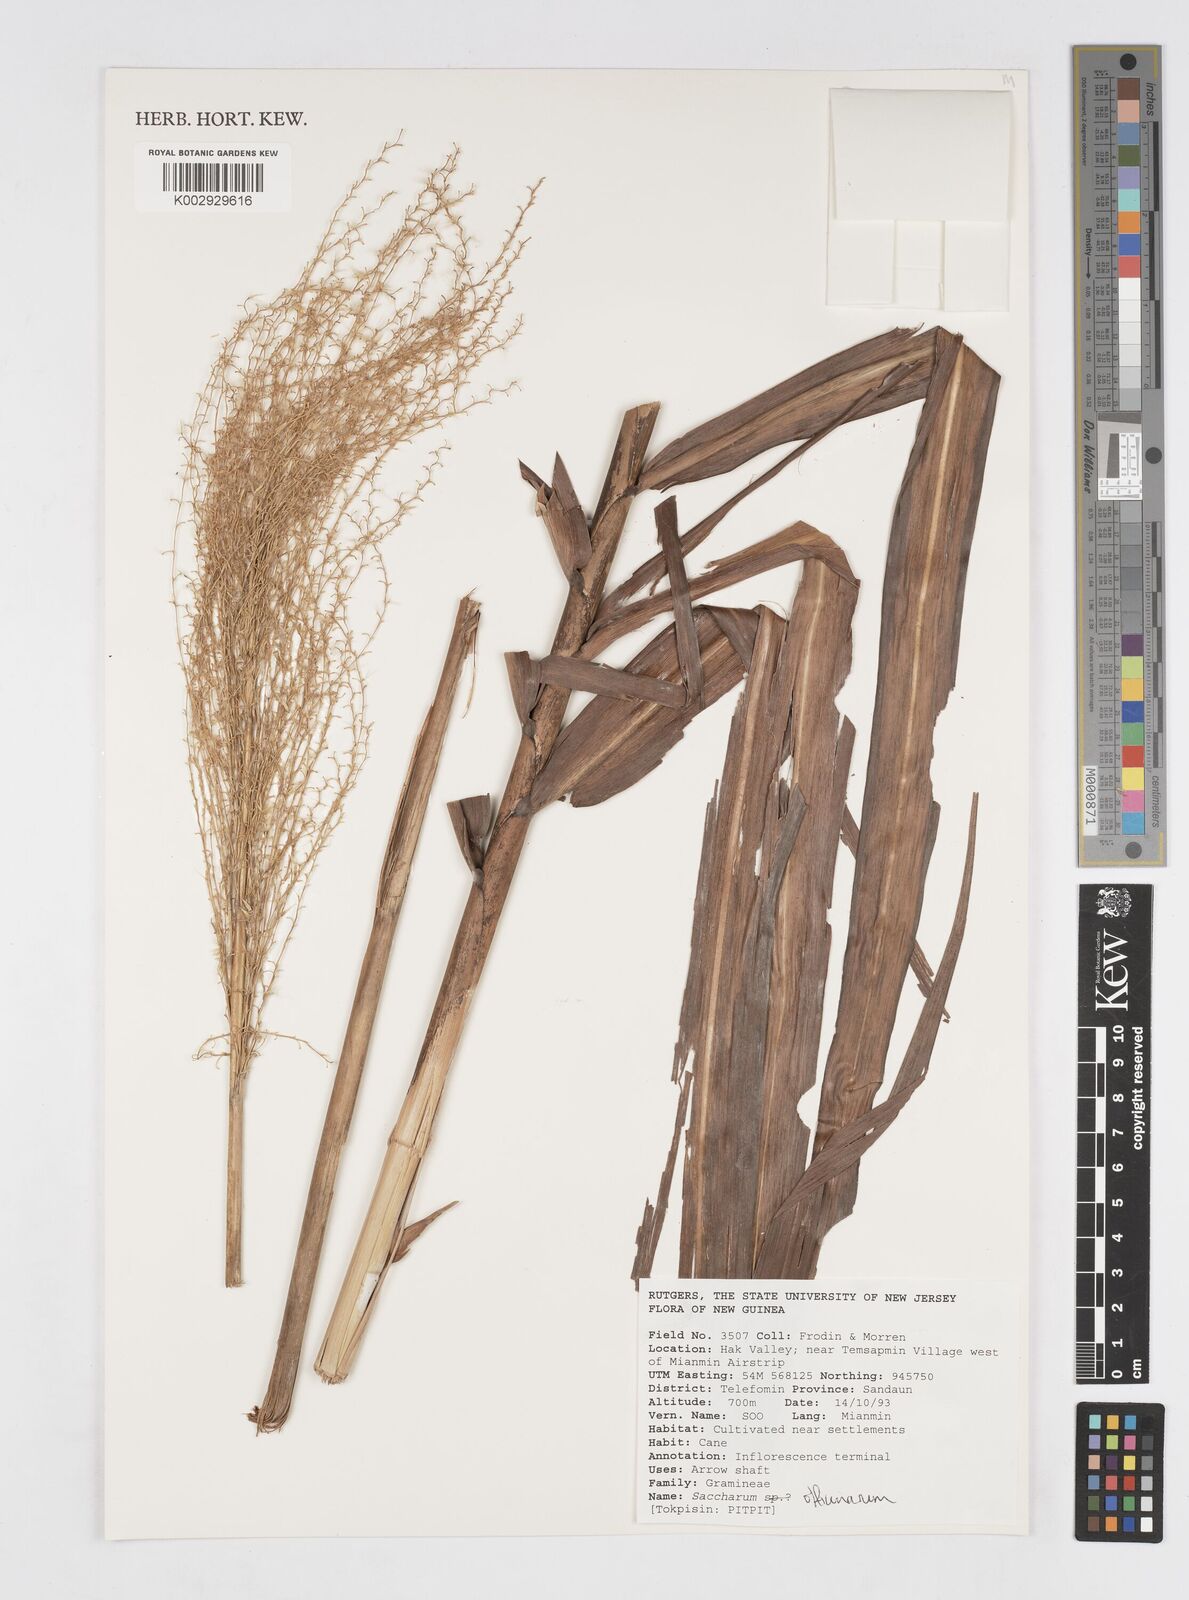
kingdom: Plantae
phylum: Tracheophyta
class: Liliopsida
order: Poales
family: Poaceae
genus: Saccharum
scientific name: Saccharum officinarum
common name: Sugarcane
